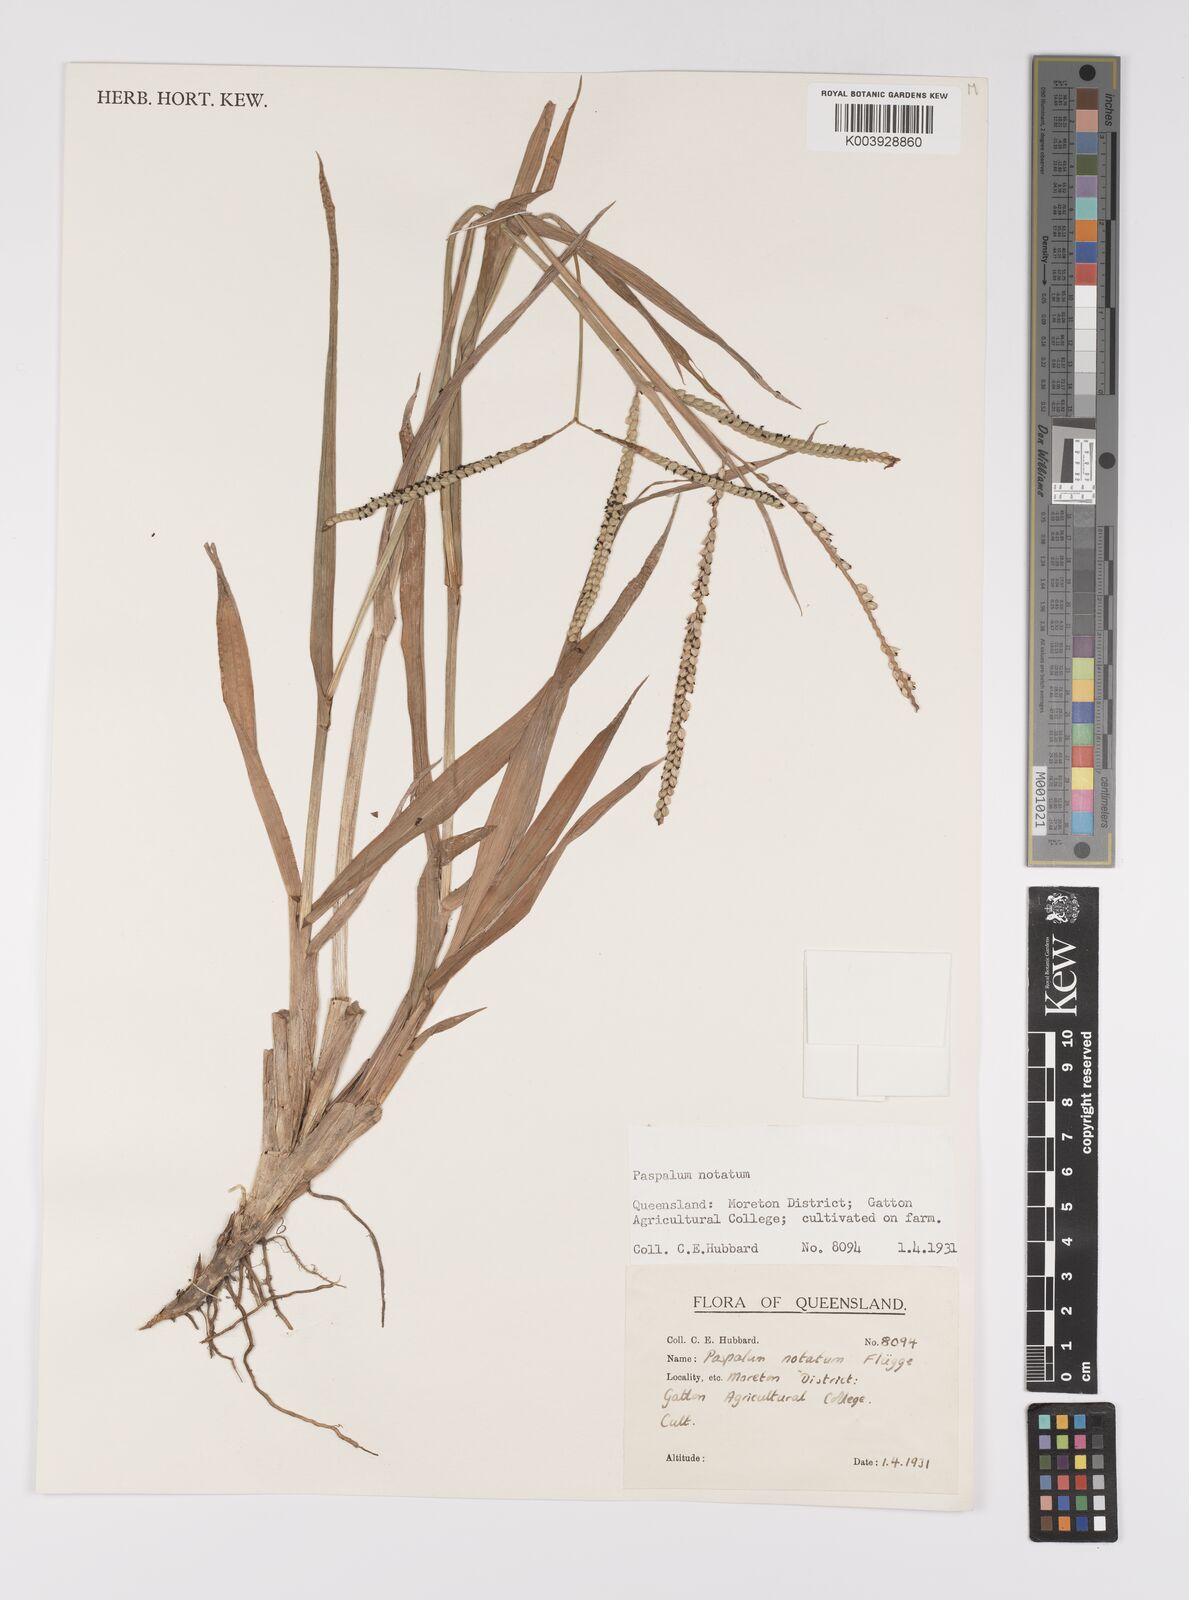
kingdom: Plantae
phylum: Tracheophyta
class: Liliopsida
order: Poales
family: Poaceae
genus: Paspalum
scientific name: Paspalum notatum
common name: Bahiagrass
